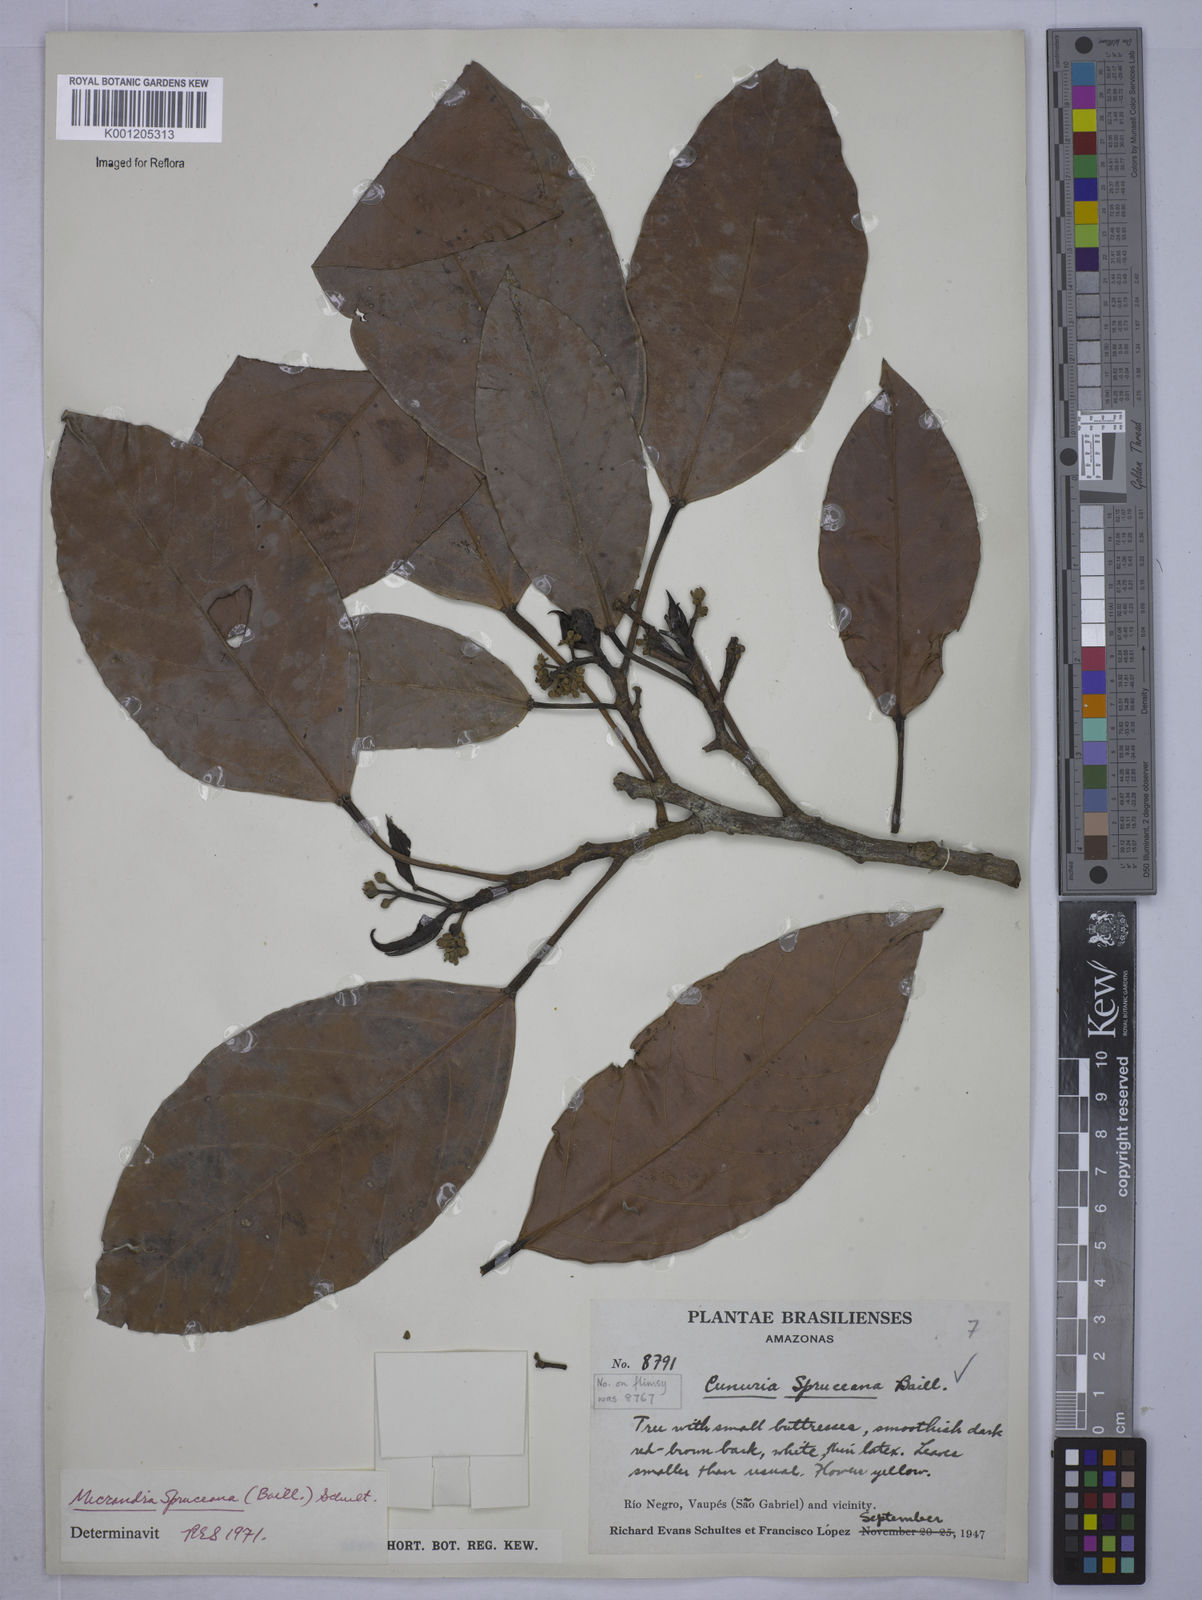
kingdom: Plantae
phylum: Tracheophyta
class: Magnoliopsida
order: Malpighiales
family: Euphorbiaceae
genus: Micrandra
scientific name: Micrandra spruceana
